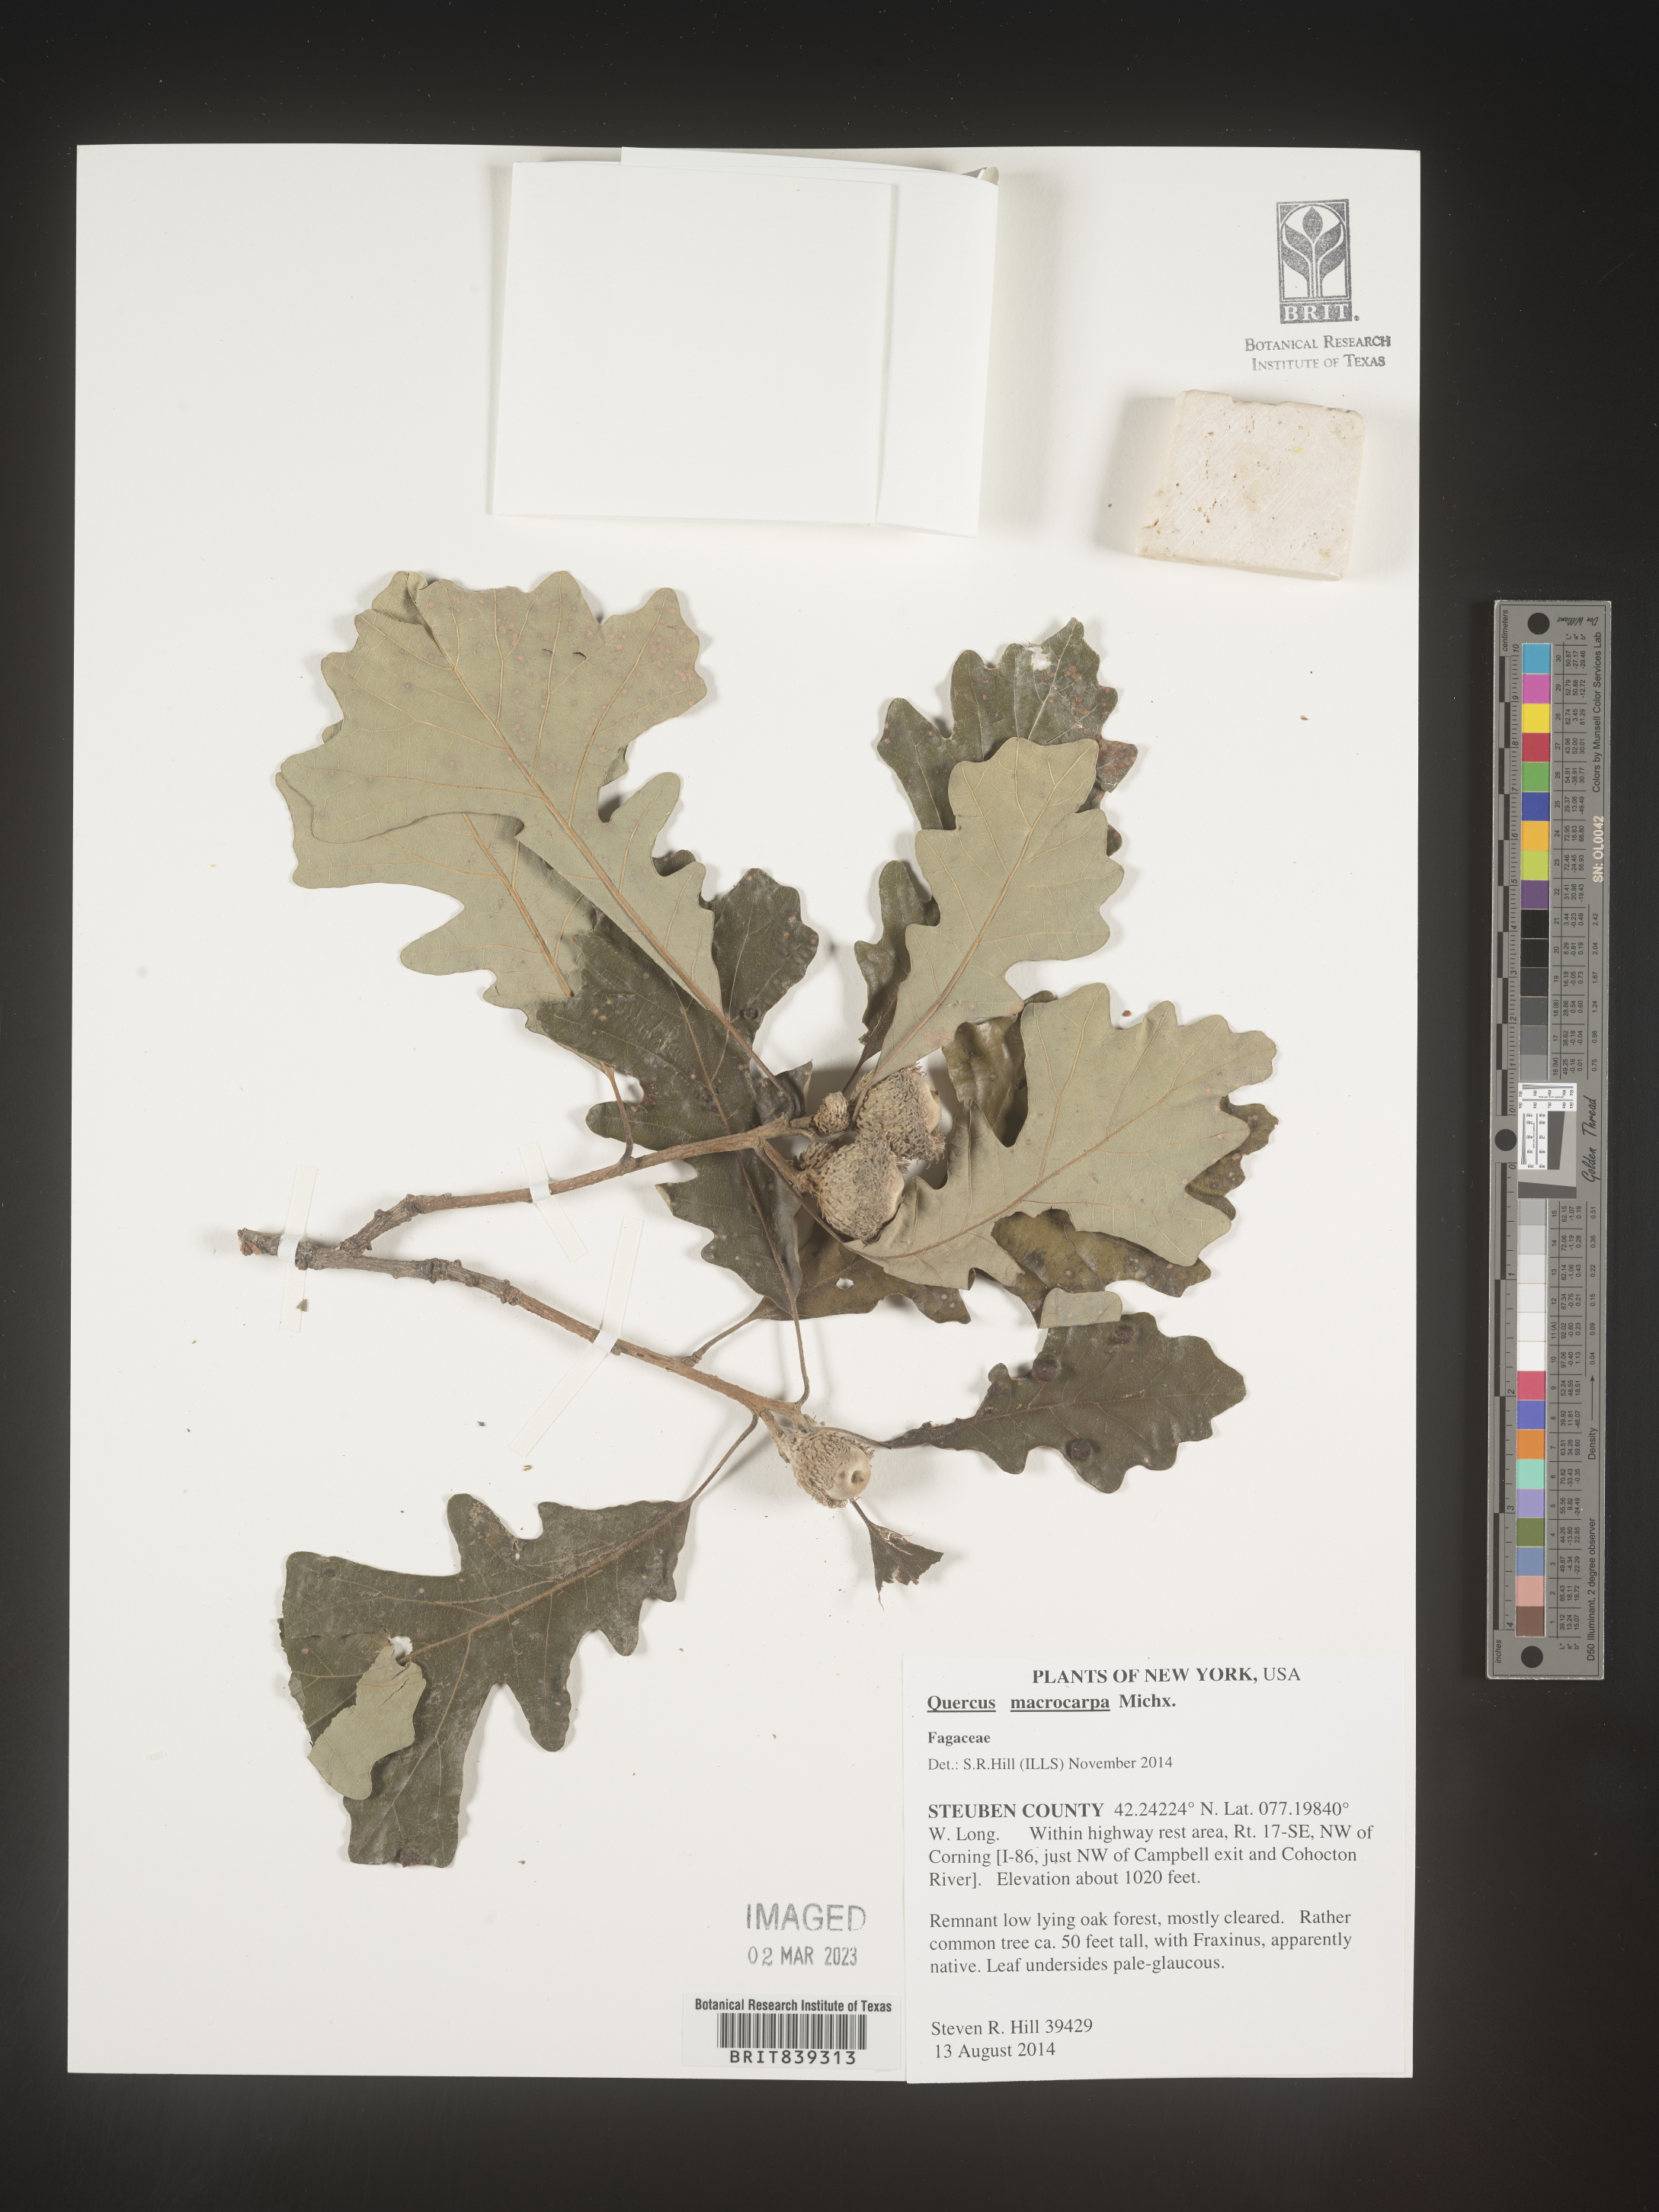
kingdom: Plantae
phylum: Tracheophyta
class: Magnoliopsida
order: Fagales
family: Fagaceae
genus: Quercus
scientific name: Quercus macrocarpa
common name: Bur oak
